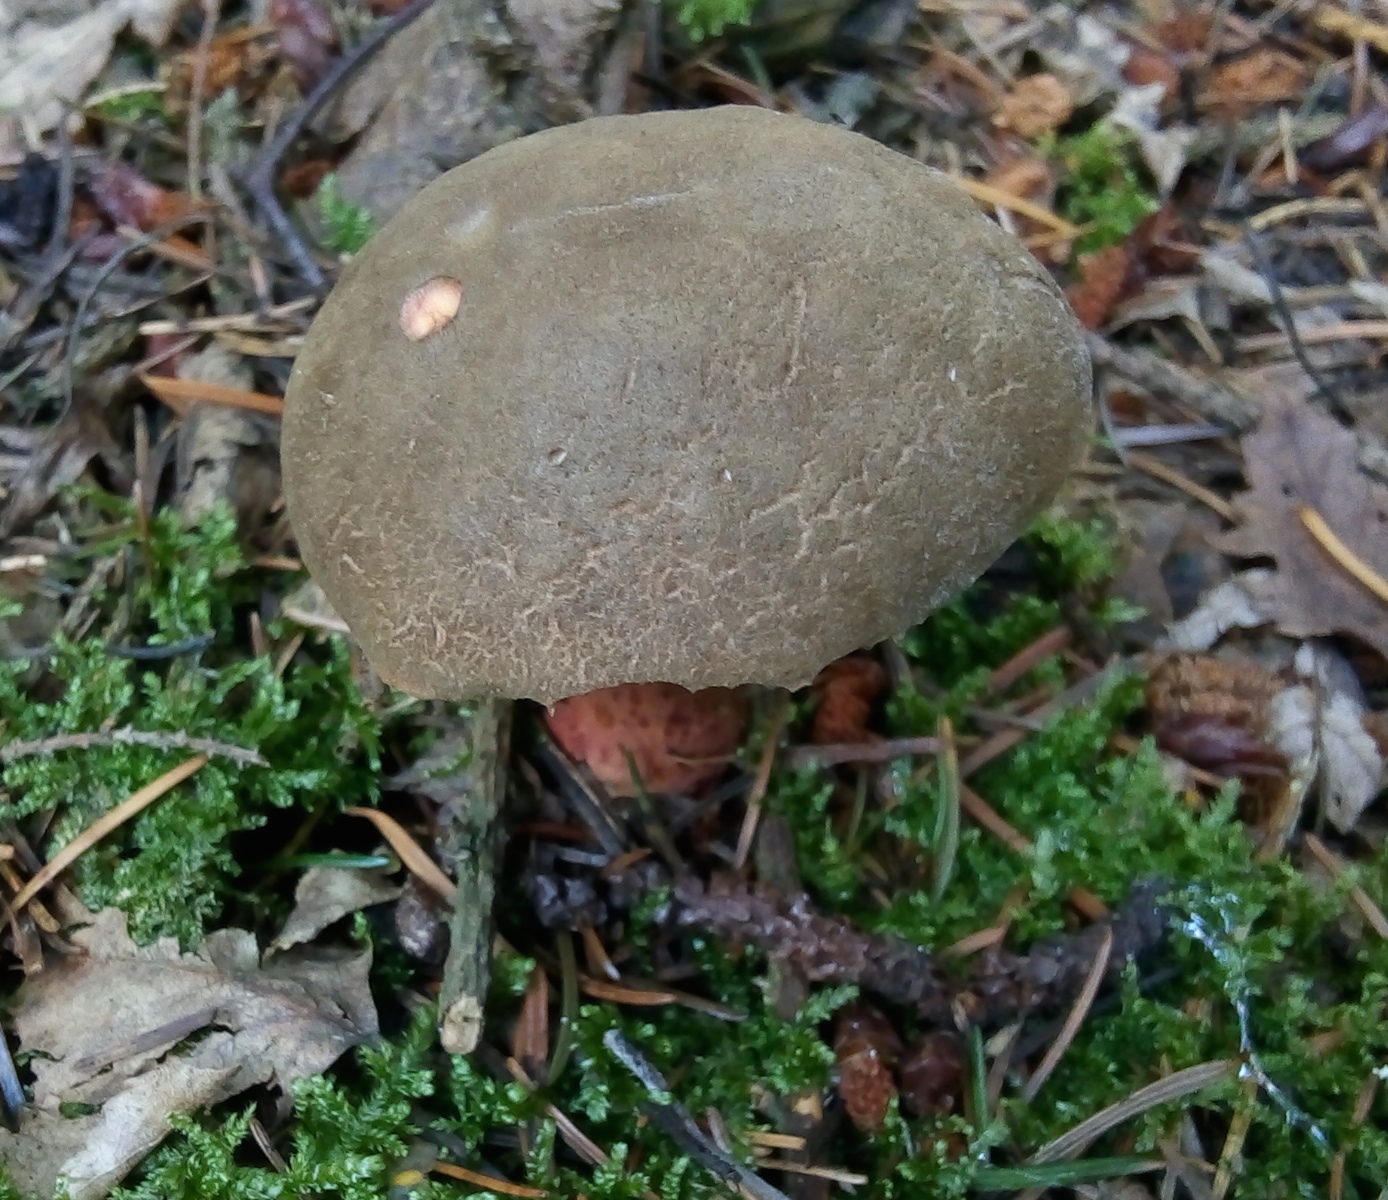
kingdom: Fungi
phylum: Basidiomycota
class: Agaricomycetes
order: Boletales
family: Boletaceae
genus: Xerocomellus
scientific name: Xerocomellus chrysenteron
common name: rødsprukken rørhat
